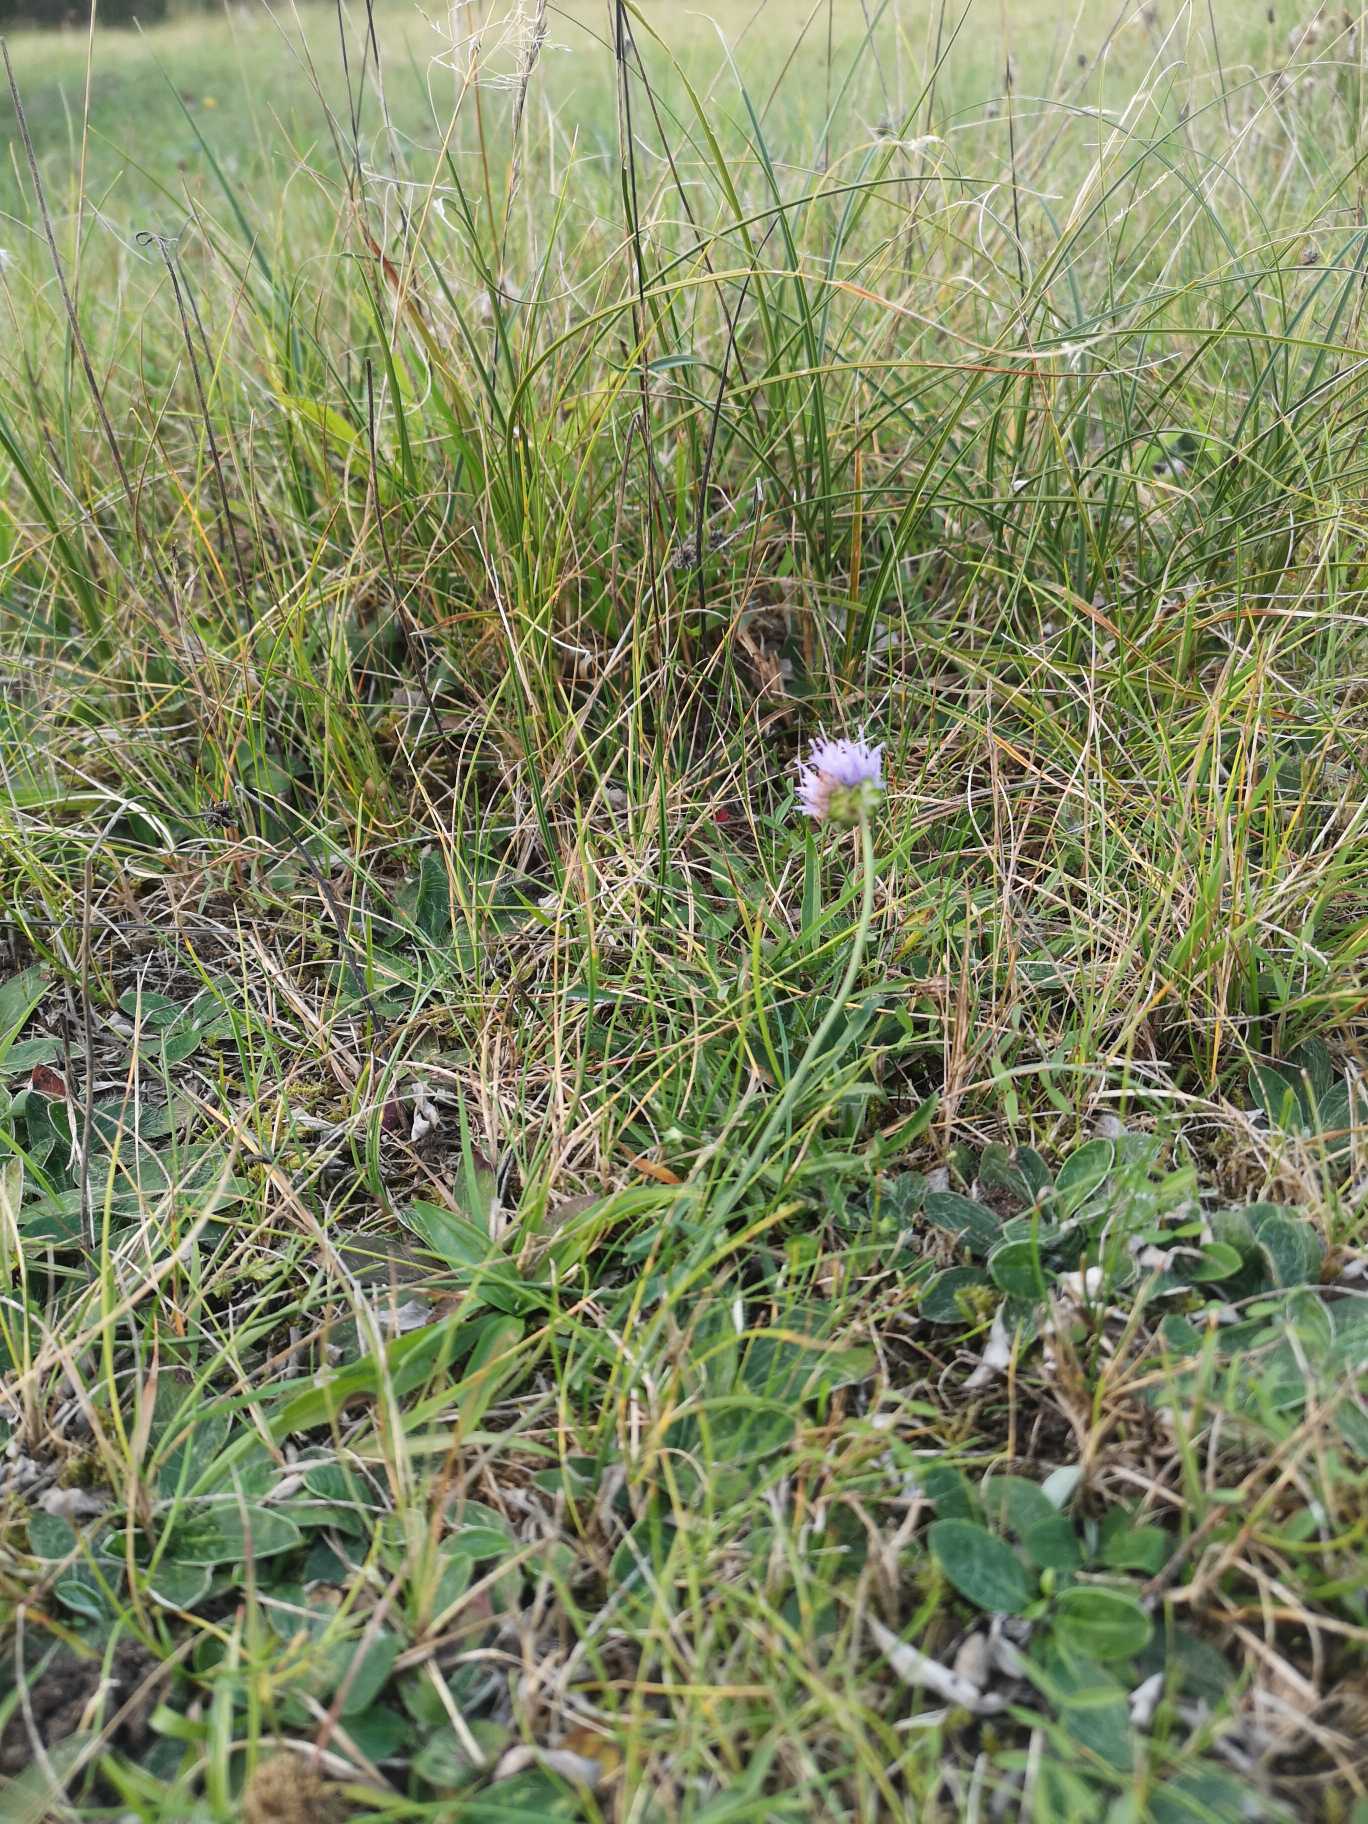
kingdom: Plantae
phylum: Tracheophyta
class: Magnoliopsida
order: Asterales
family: Campanulaceae
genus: Jasione
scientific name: Jasione montana
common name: Blåmunke
